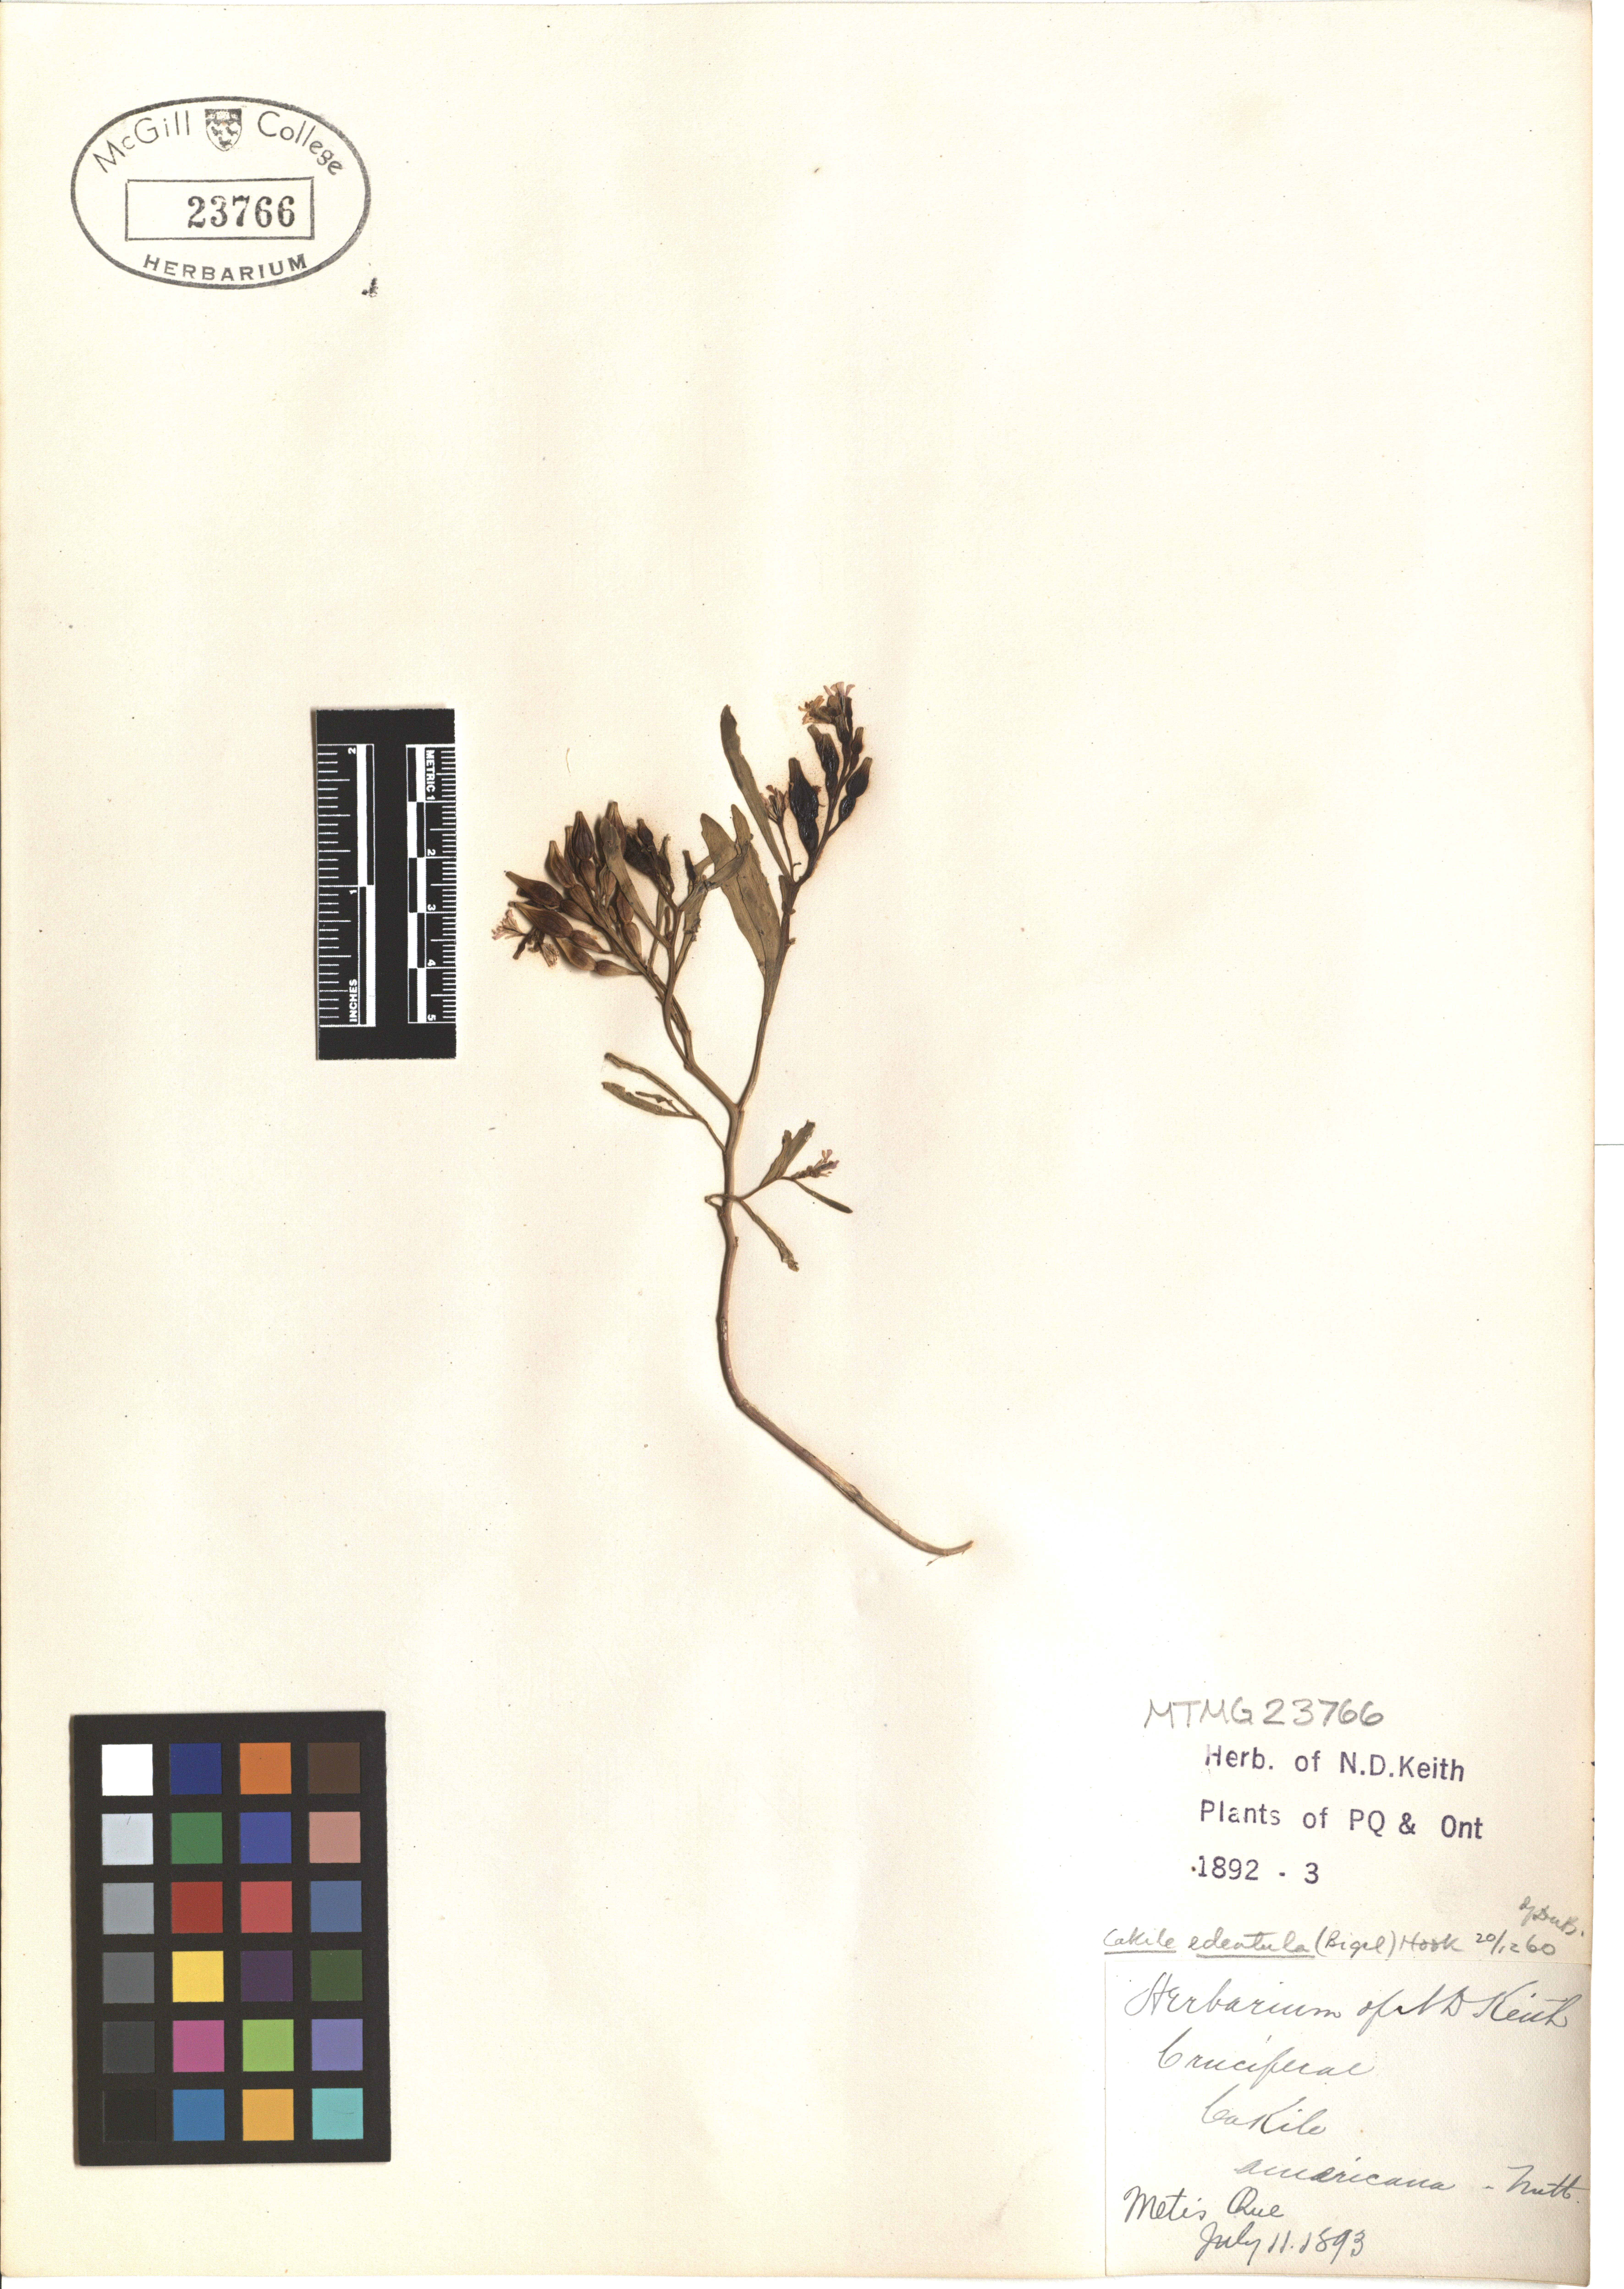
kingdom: Plantae
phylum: Tracheophyta
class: Magnoliopsida
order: Brassicales
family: Brassicaceae
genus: Cakile
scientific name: Cakile edentula
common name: American sea rocket
